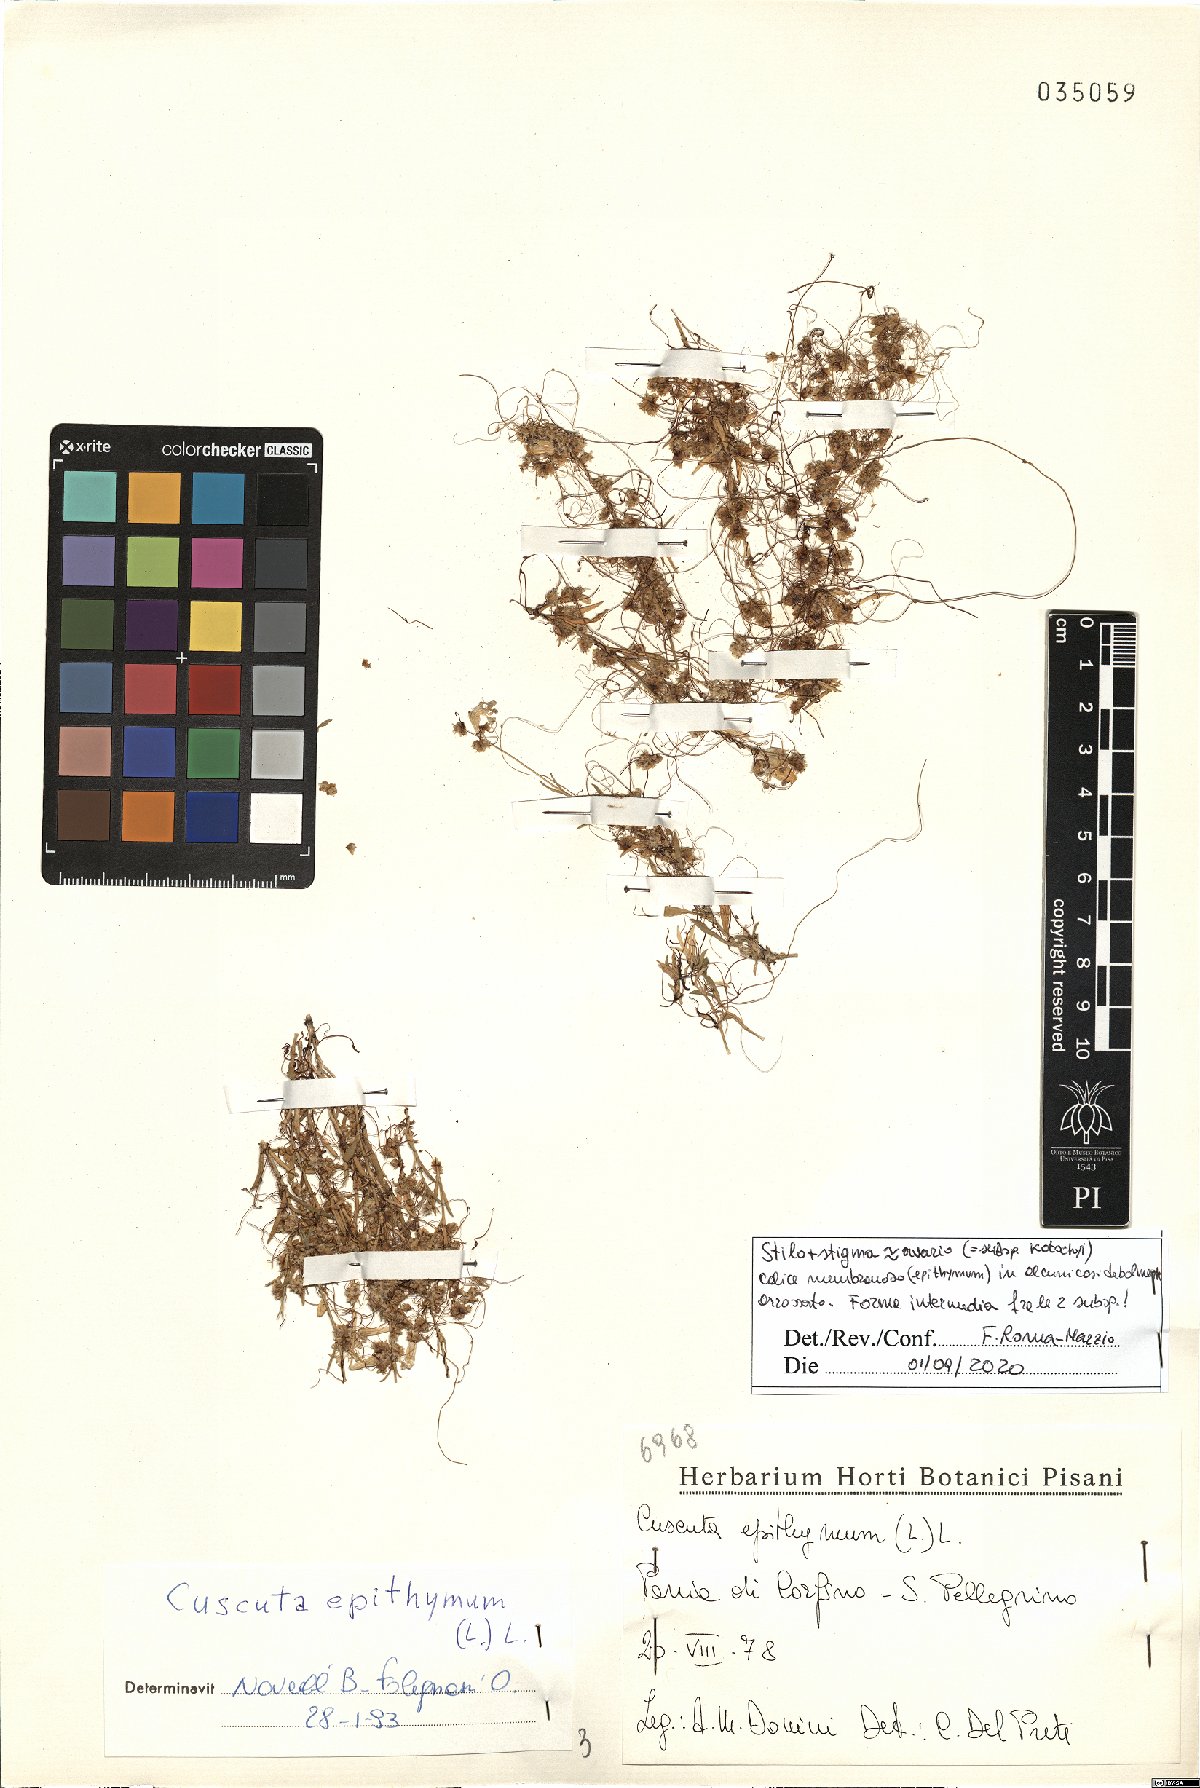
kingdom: Plantae
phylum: Tracheophyta
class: Magnoliopsida
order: Solanales
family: Convolvulaceae
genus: Cuscuta
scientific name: Cuscuta epithymum
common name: Clover dodder
